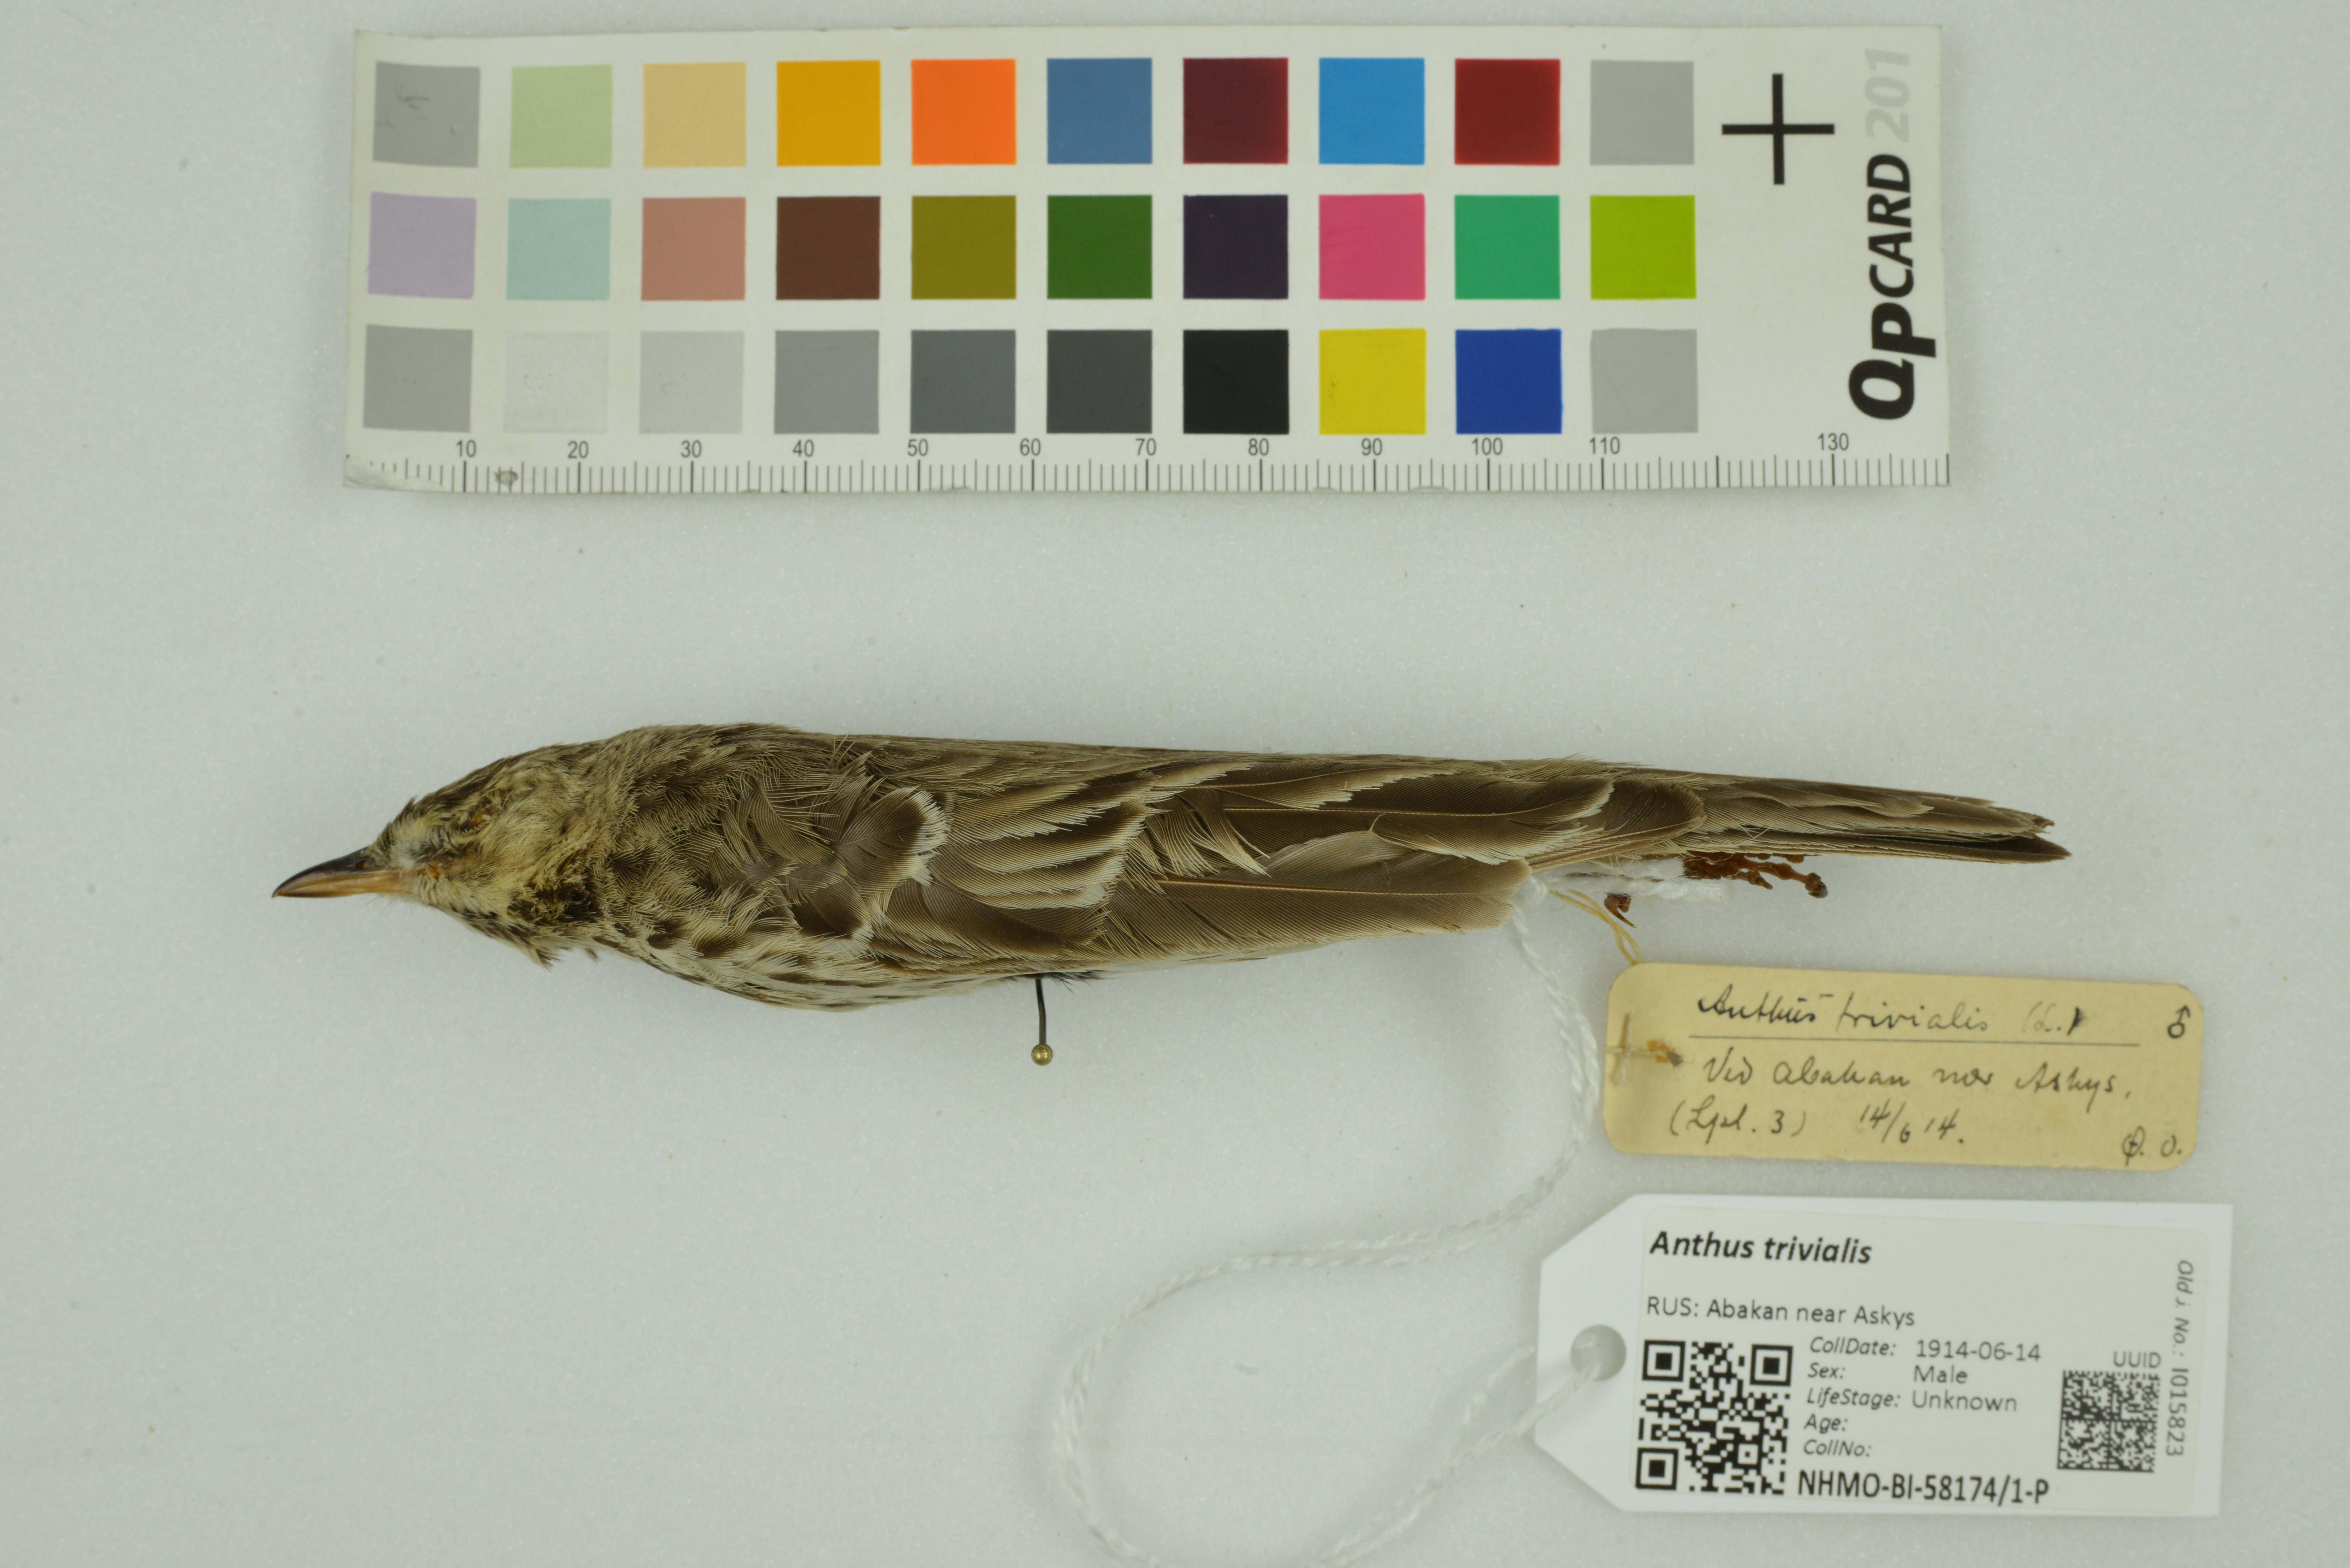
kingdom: Animalia
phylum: Chordata
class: Aves
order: Passeriformes
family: Motacillidae
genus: Anthus
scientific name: Anthus trivialis
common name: Tree pipit
